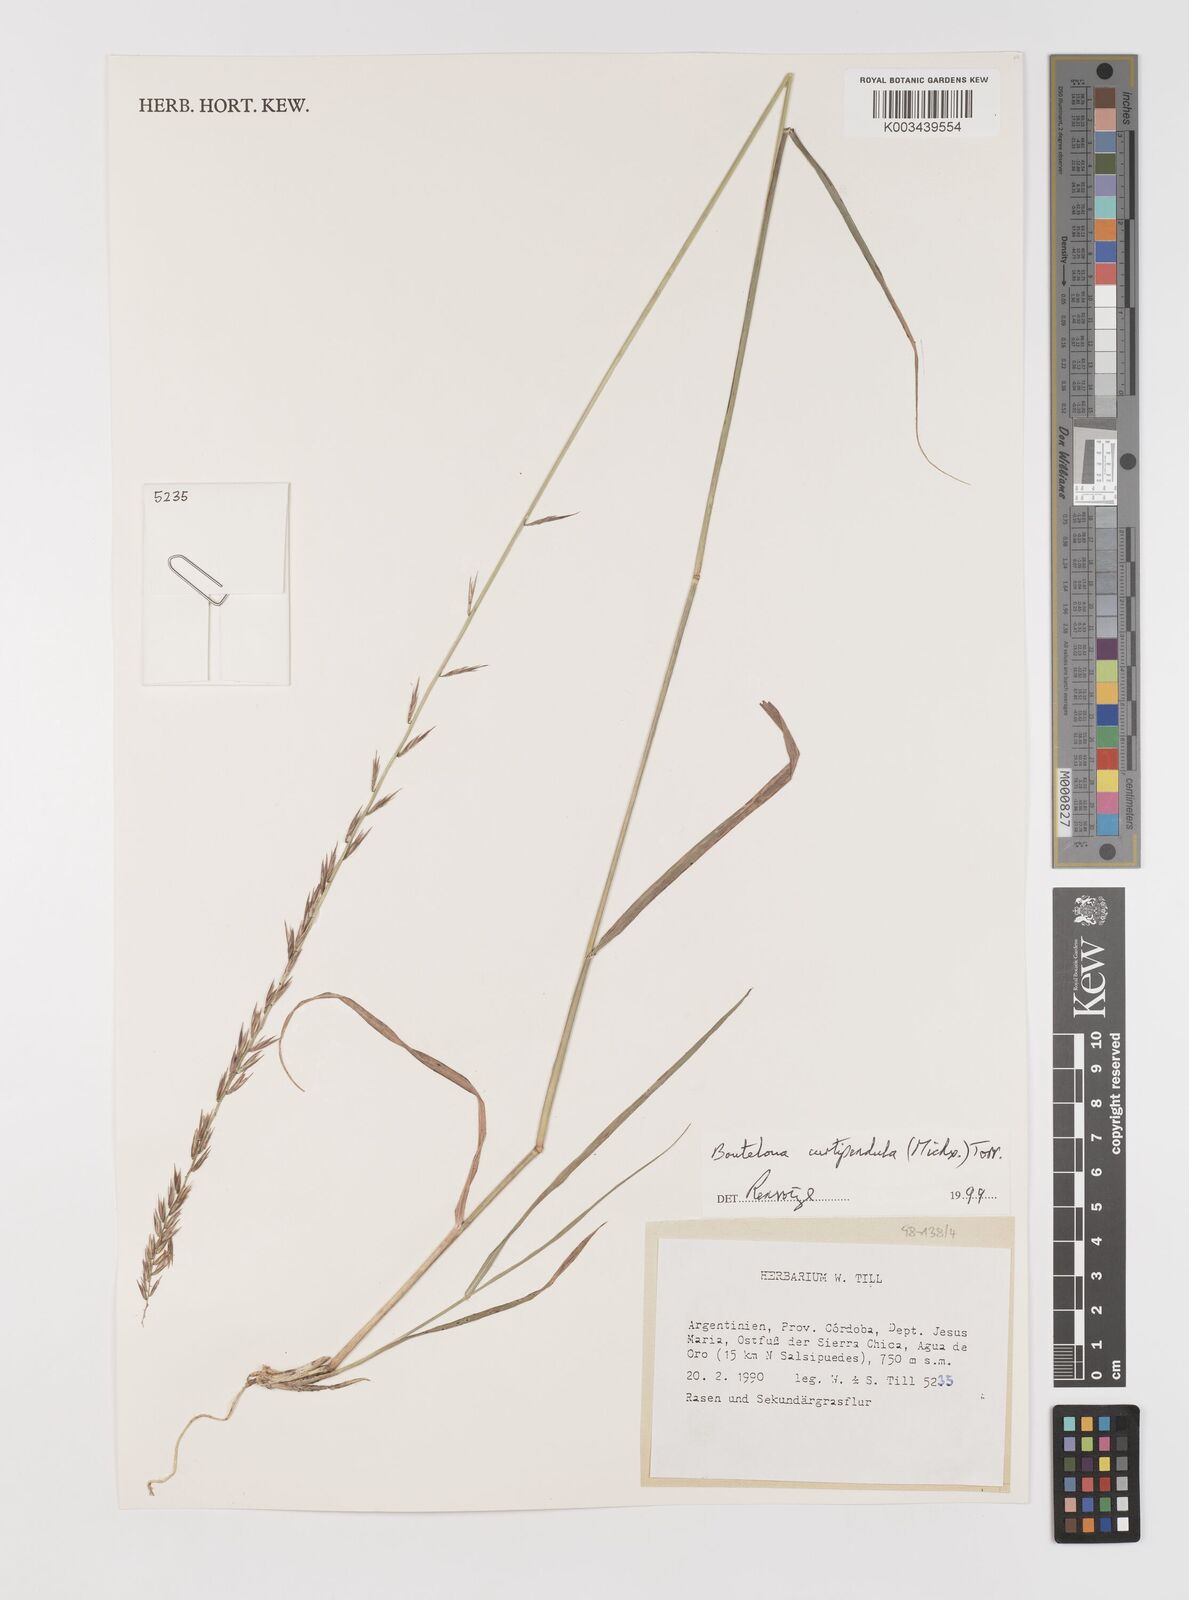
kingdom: Plantae
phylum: Tracheophyta
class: Liliopsida
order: Poales
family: Poaceae
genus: Bouteloua
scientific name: Bouteloua curtipendula
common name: Side-oats grama
